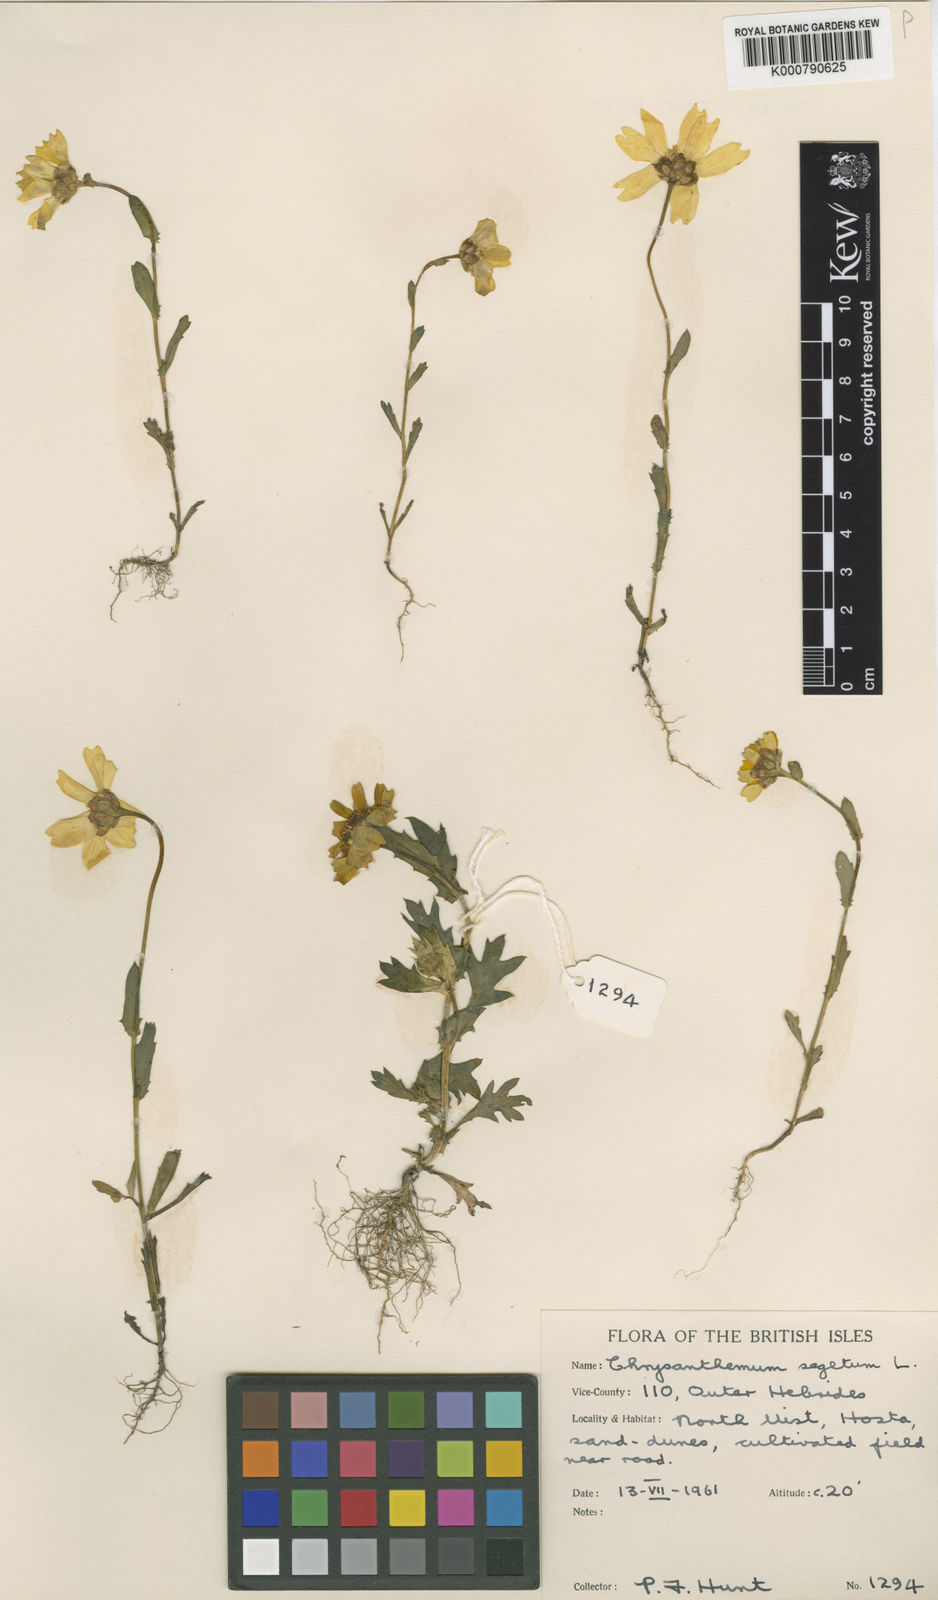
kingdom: Plantae
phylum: Tracheophyta
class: Magnoliopsida
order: Asterales
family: Asteraceae
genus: Glebionis
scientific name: Glebionis
